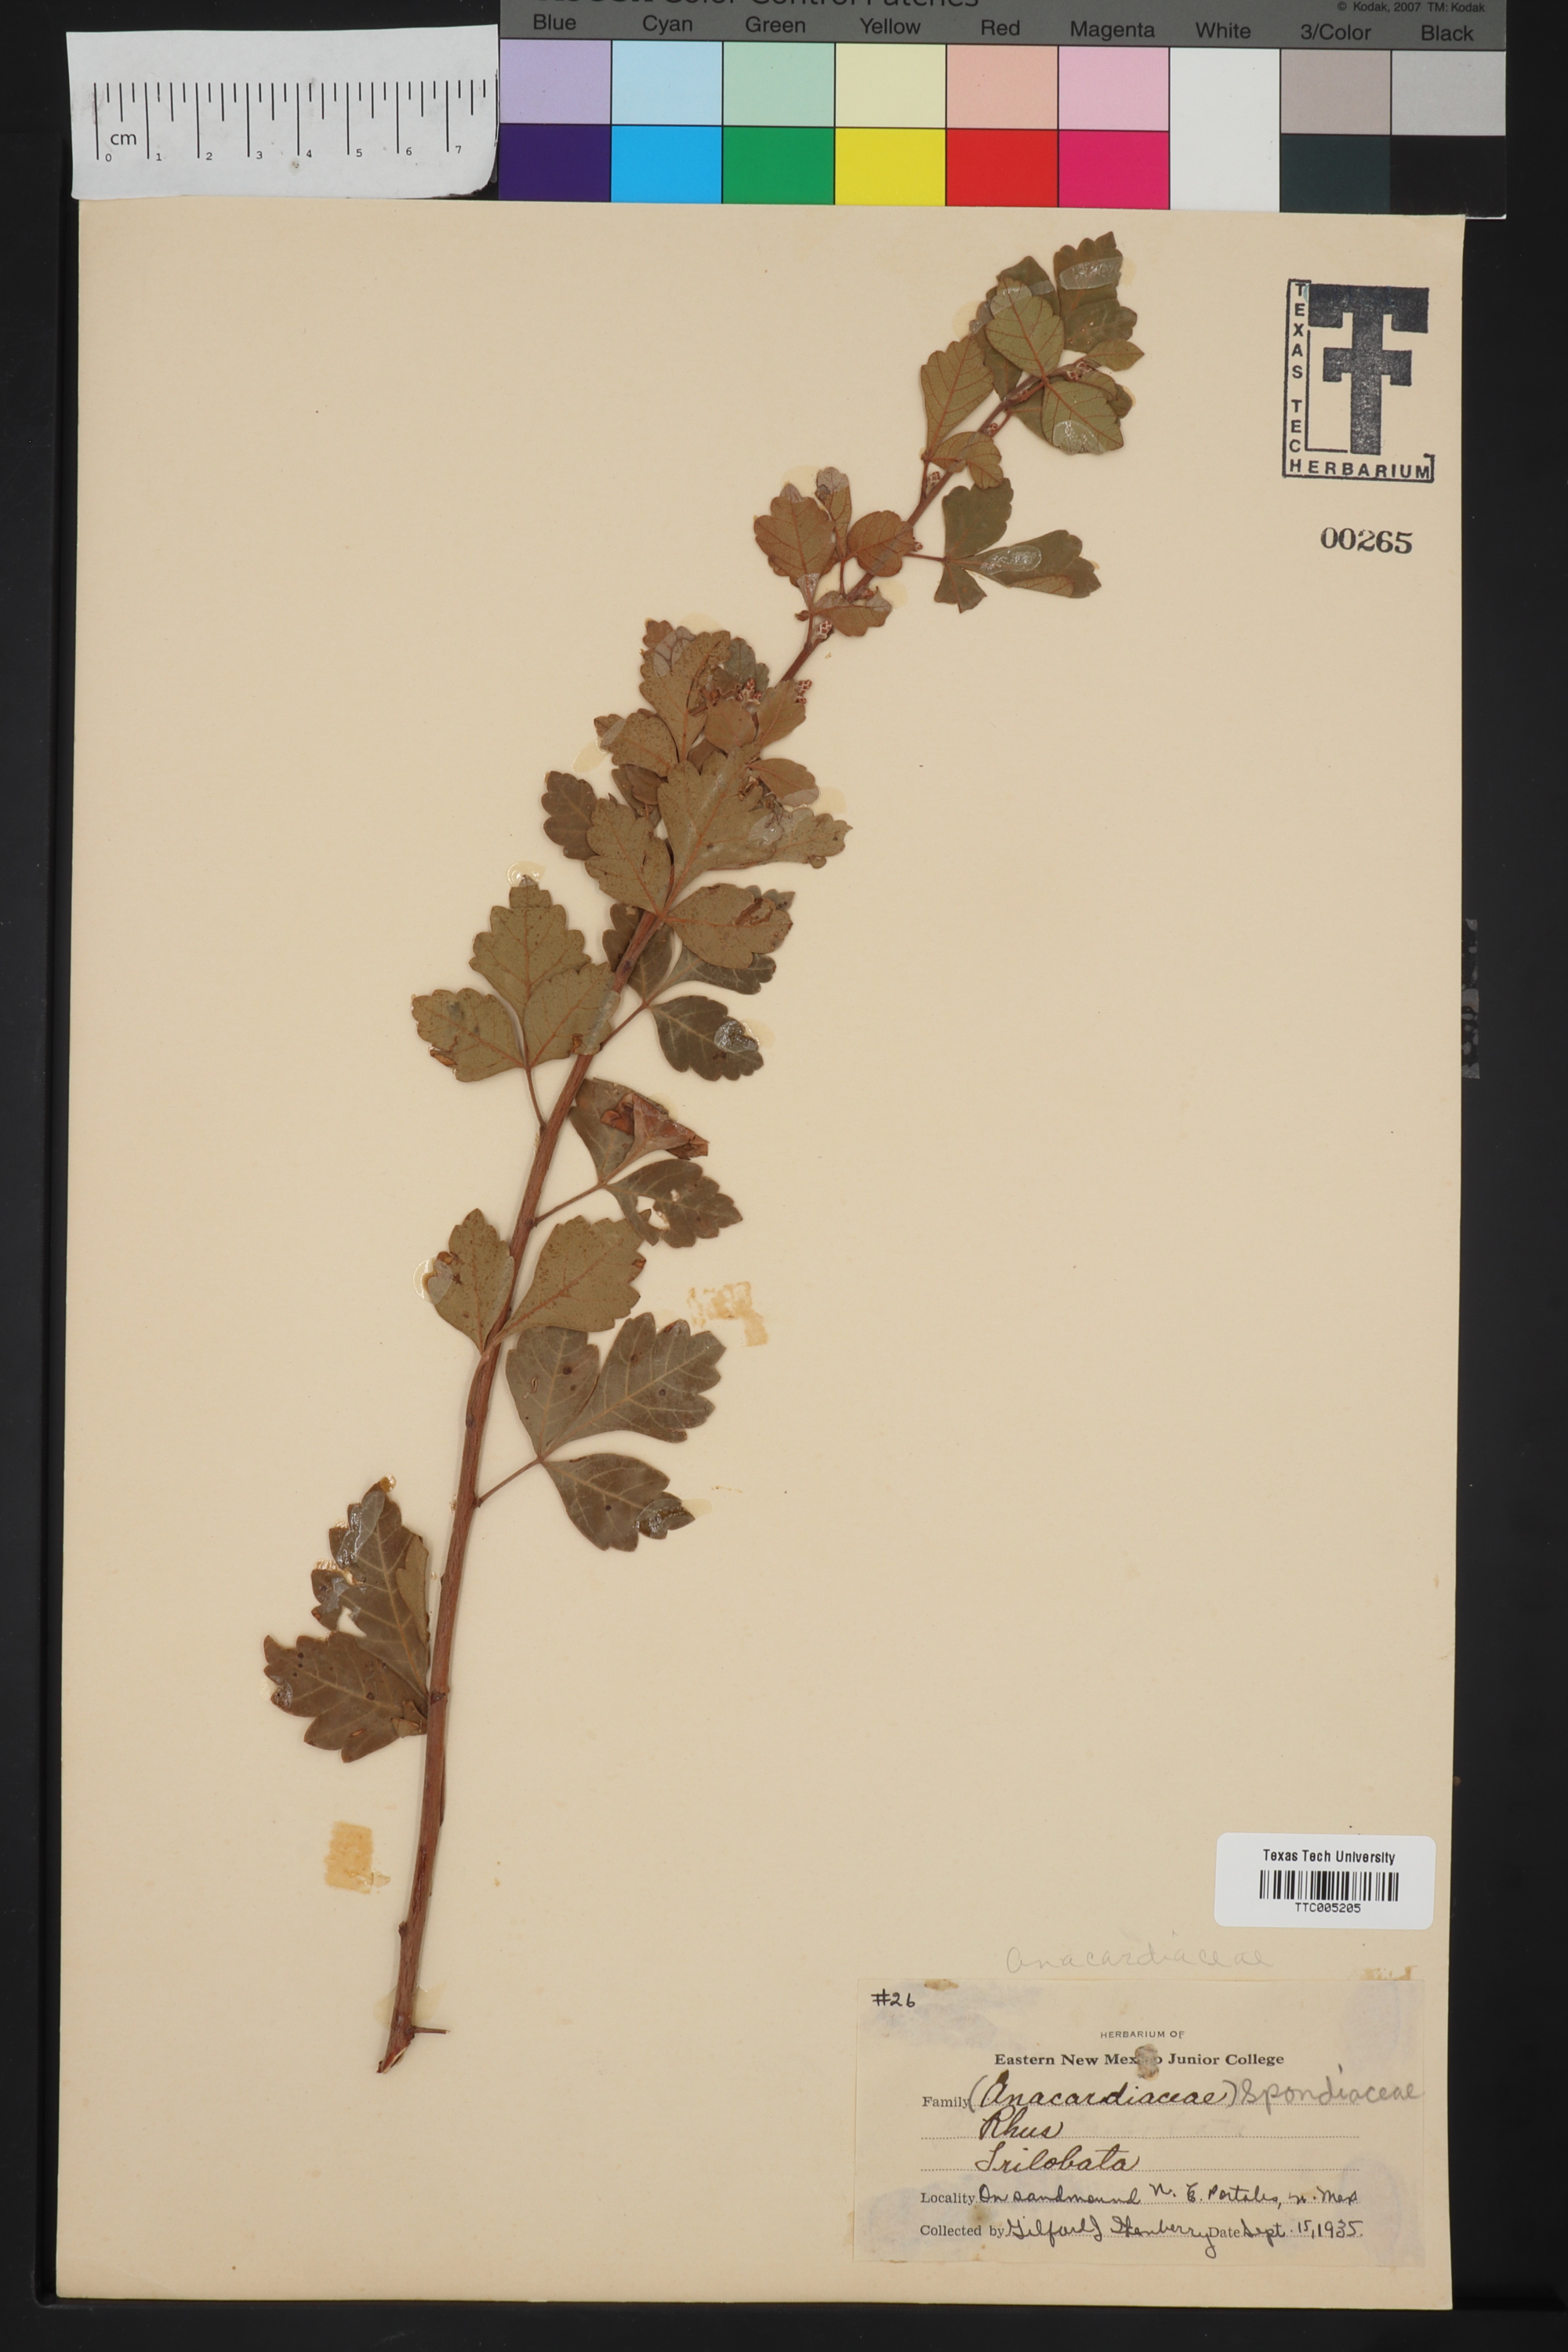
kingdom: Plantae
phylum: Tracheophyta
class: Magnoliopsida
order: Sapindales
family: Anacardiaceae
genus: Rhus
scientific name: Rhus trilobata
